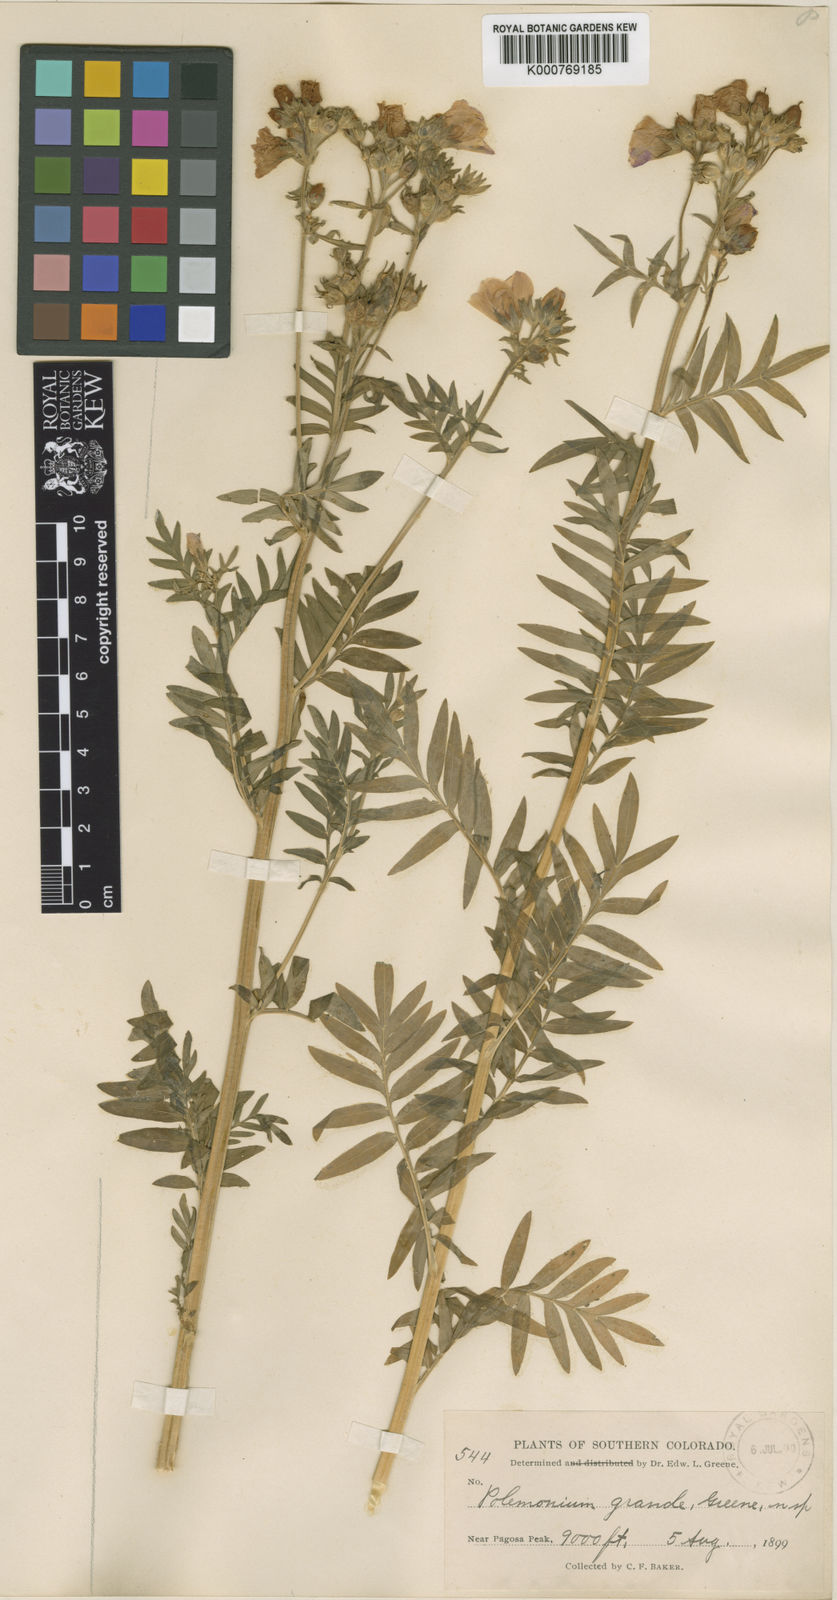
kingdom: Plantae
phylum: Tracheophyta
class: Magnoliopsida
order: Ericales
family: Polemoniaceae
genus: Polemonium
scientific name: Polemonium foliosissimum
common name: Leafy jacob's-ladder
